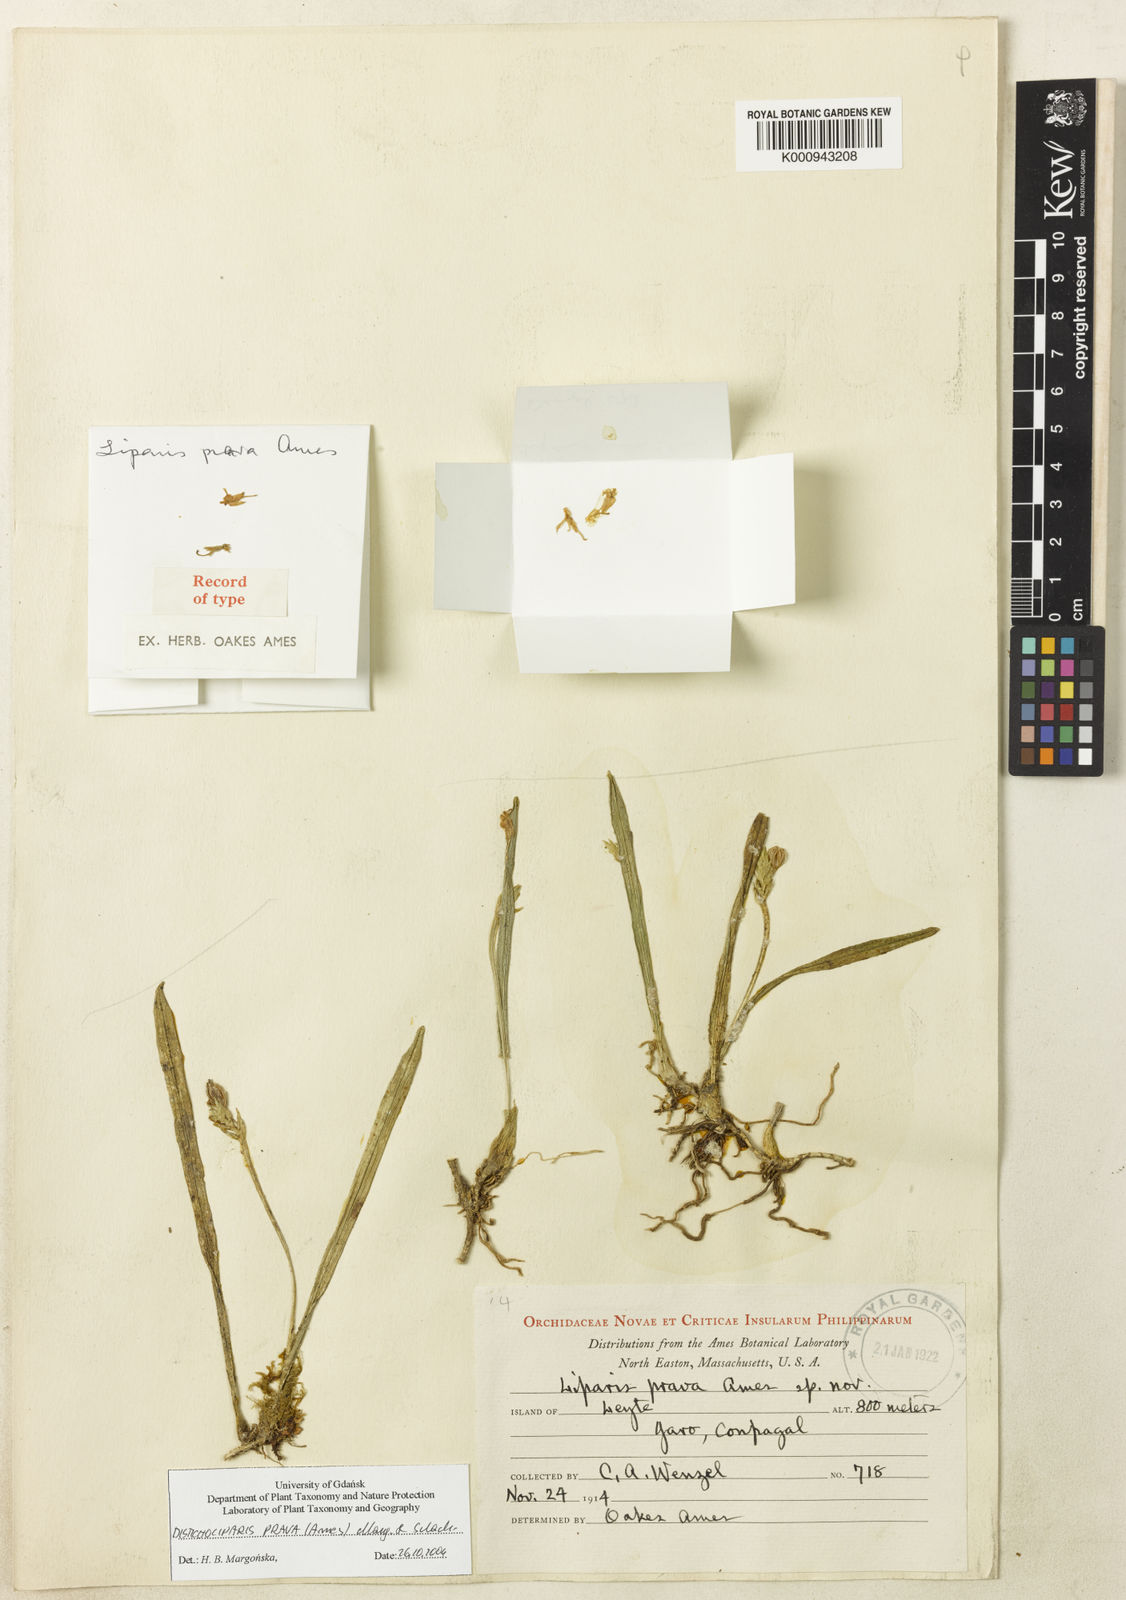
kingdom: Plantae
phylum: Tracheophyta
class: Liliopsida
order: Asparagales
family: Orchidaceae
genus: Stichorkis
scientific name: Stichorkis prava
